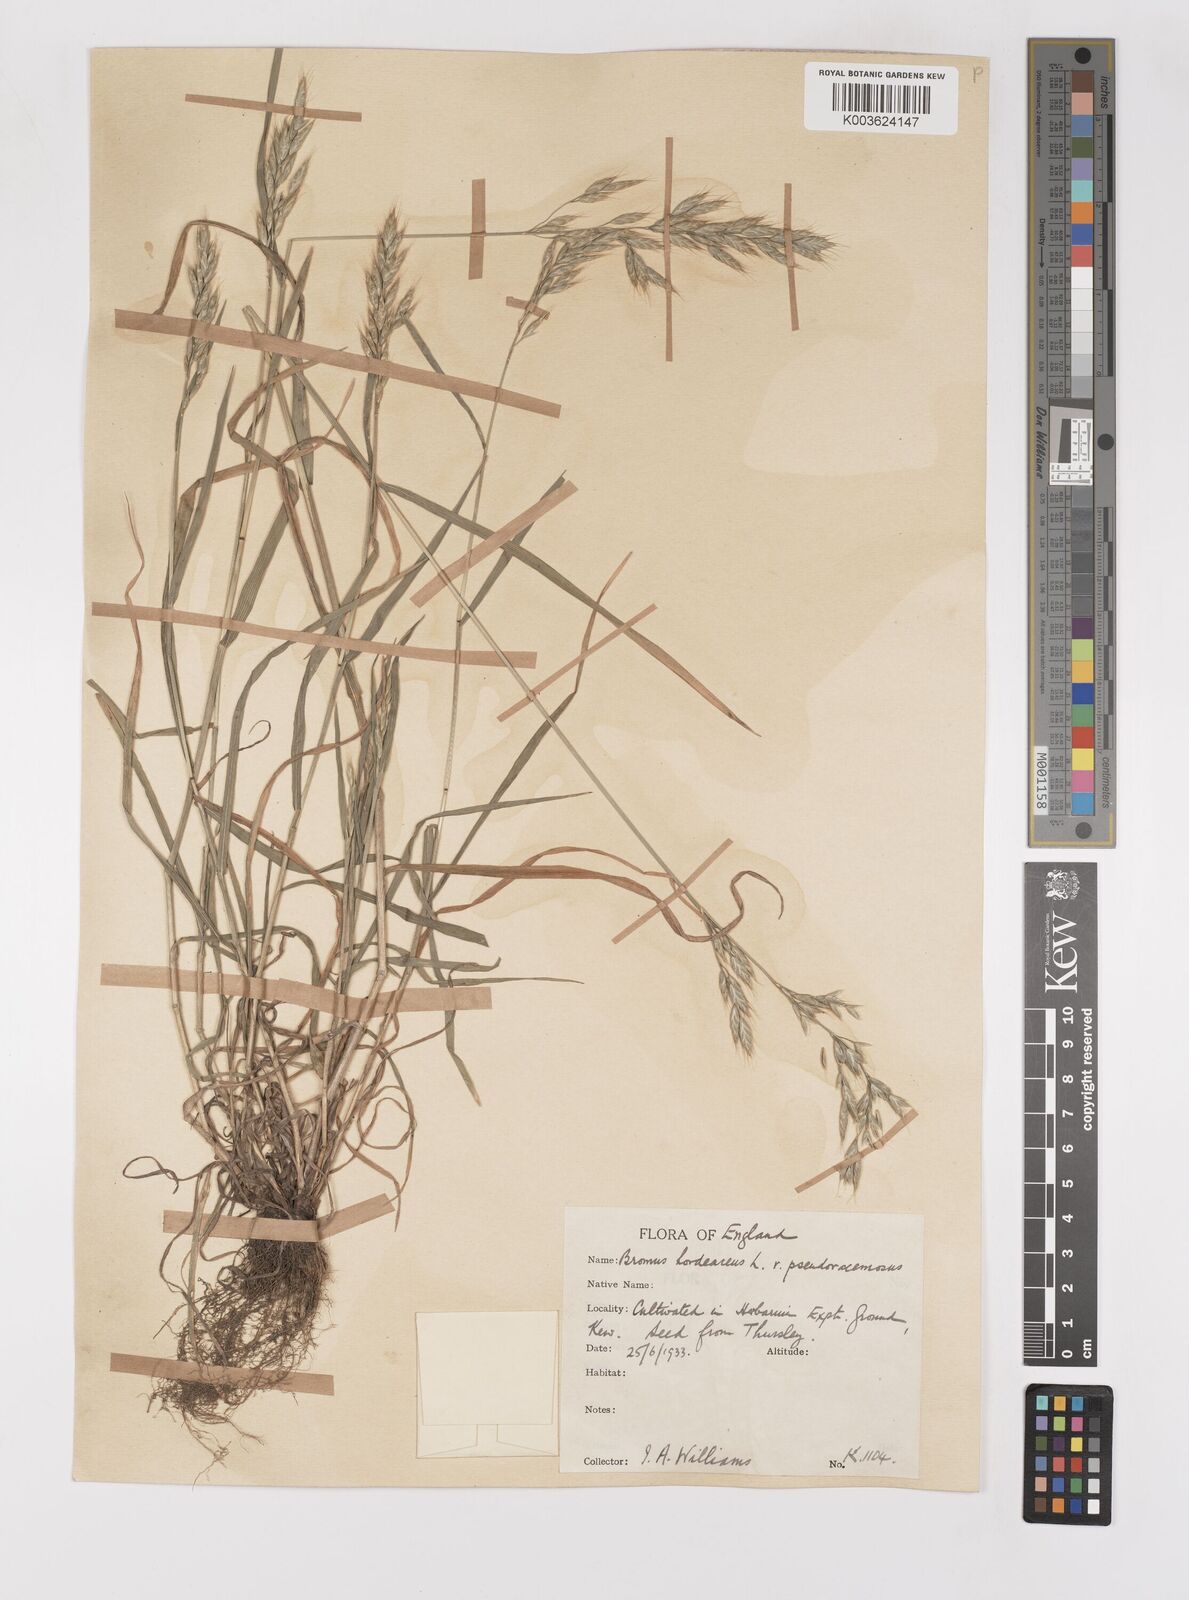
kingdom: Plantae
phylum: Tracheophyta
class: Liliopsida
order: Poales
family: Poaceae
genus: Bromus
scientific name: Bromus hordeaceus
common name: Soft brome
